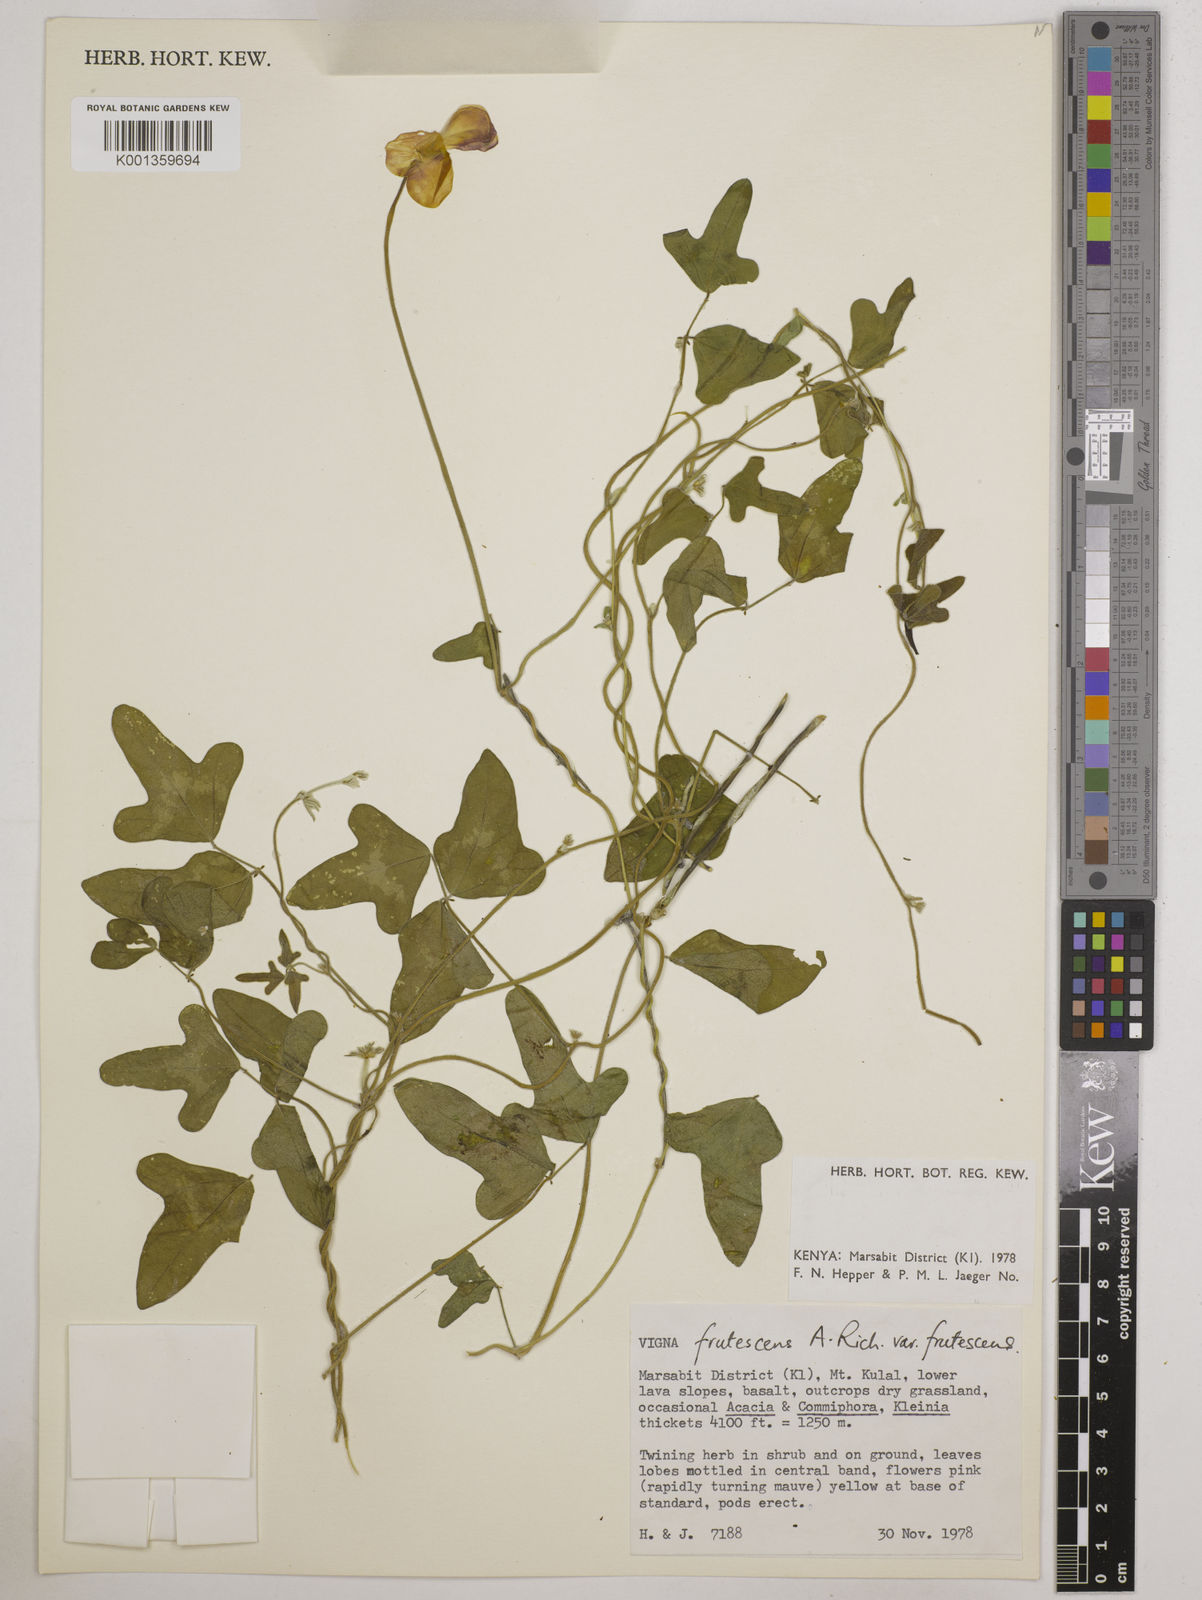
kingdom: Plantae
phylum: Tracheophyta
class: Magnoliopsida
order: Fabales
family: Fabaceae
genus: Vigna
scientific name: Vigna frutescens
